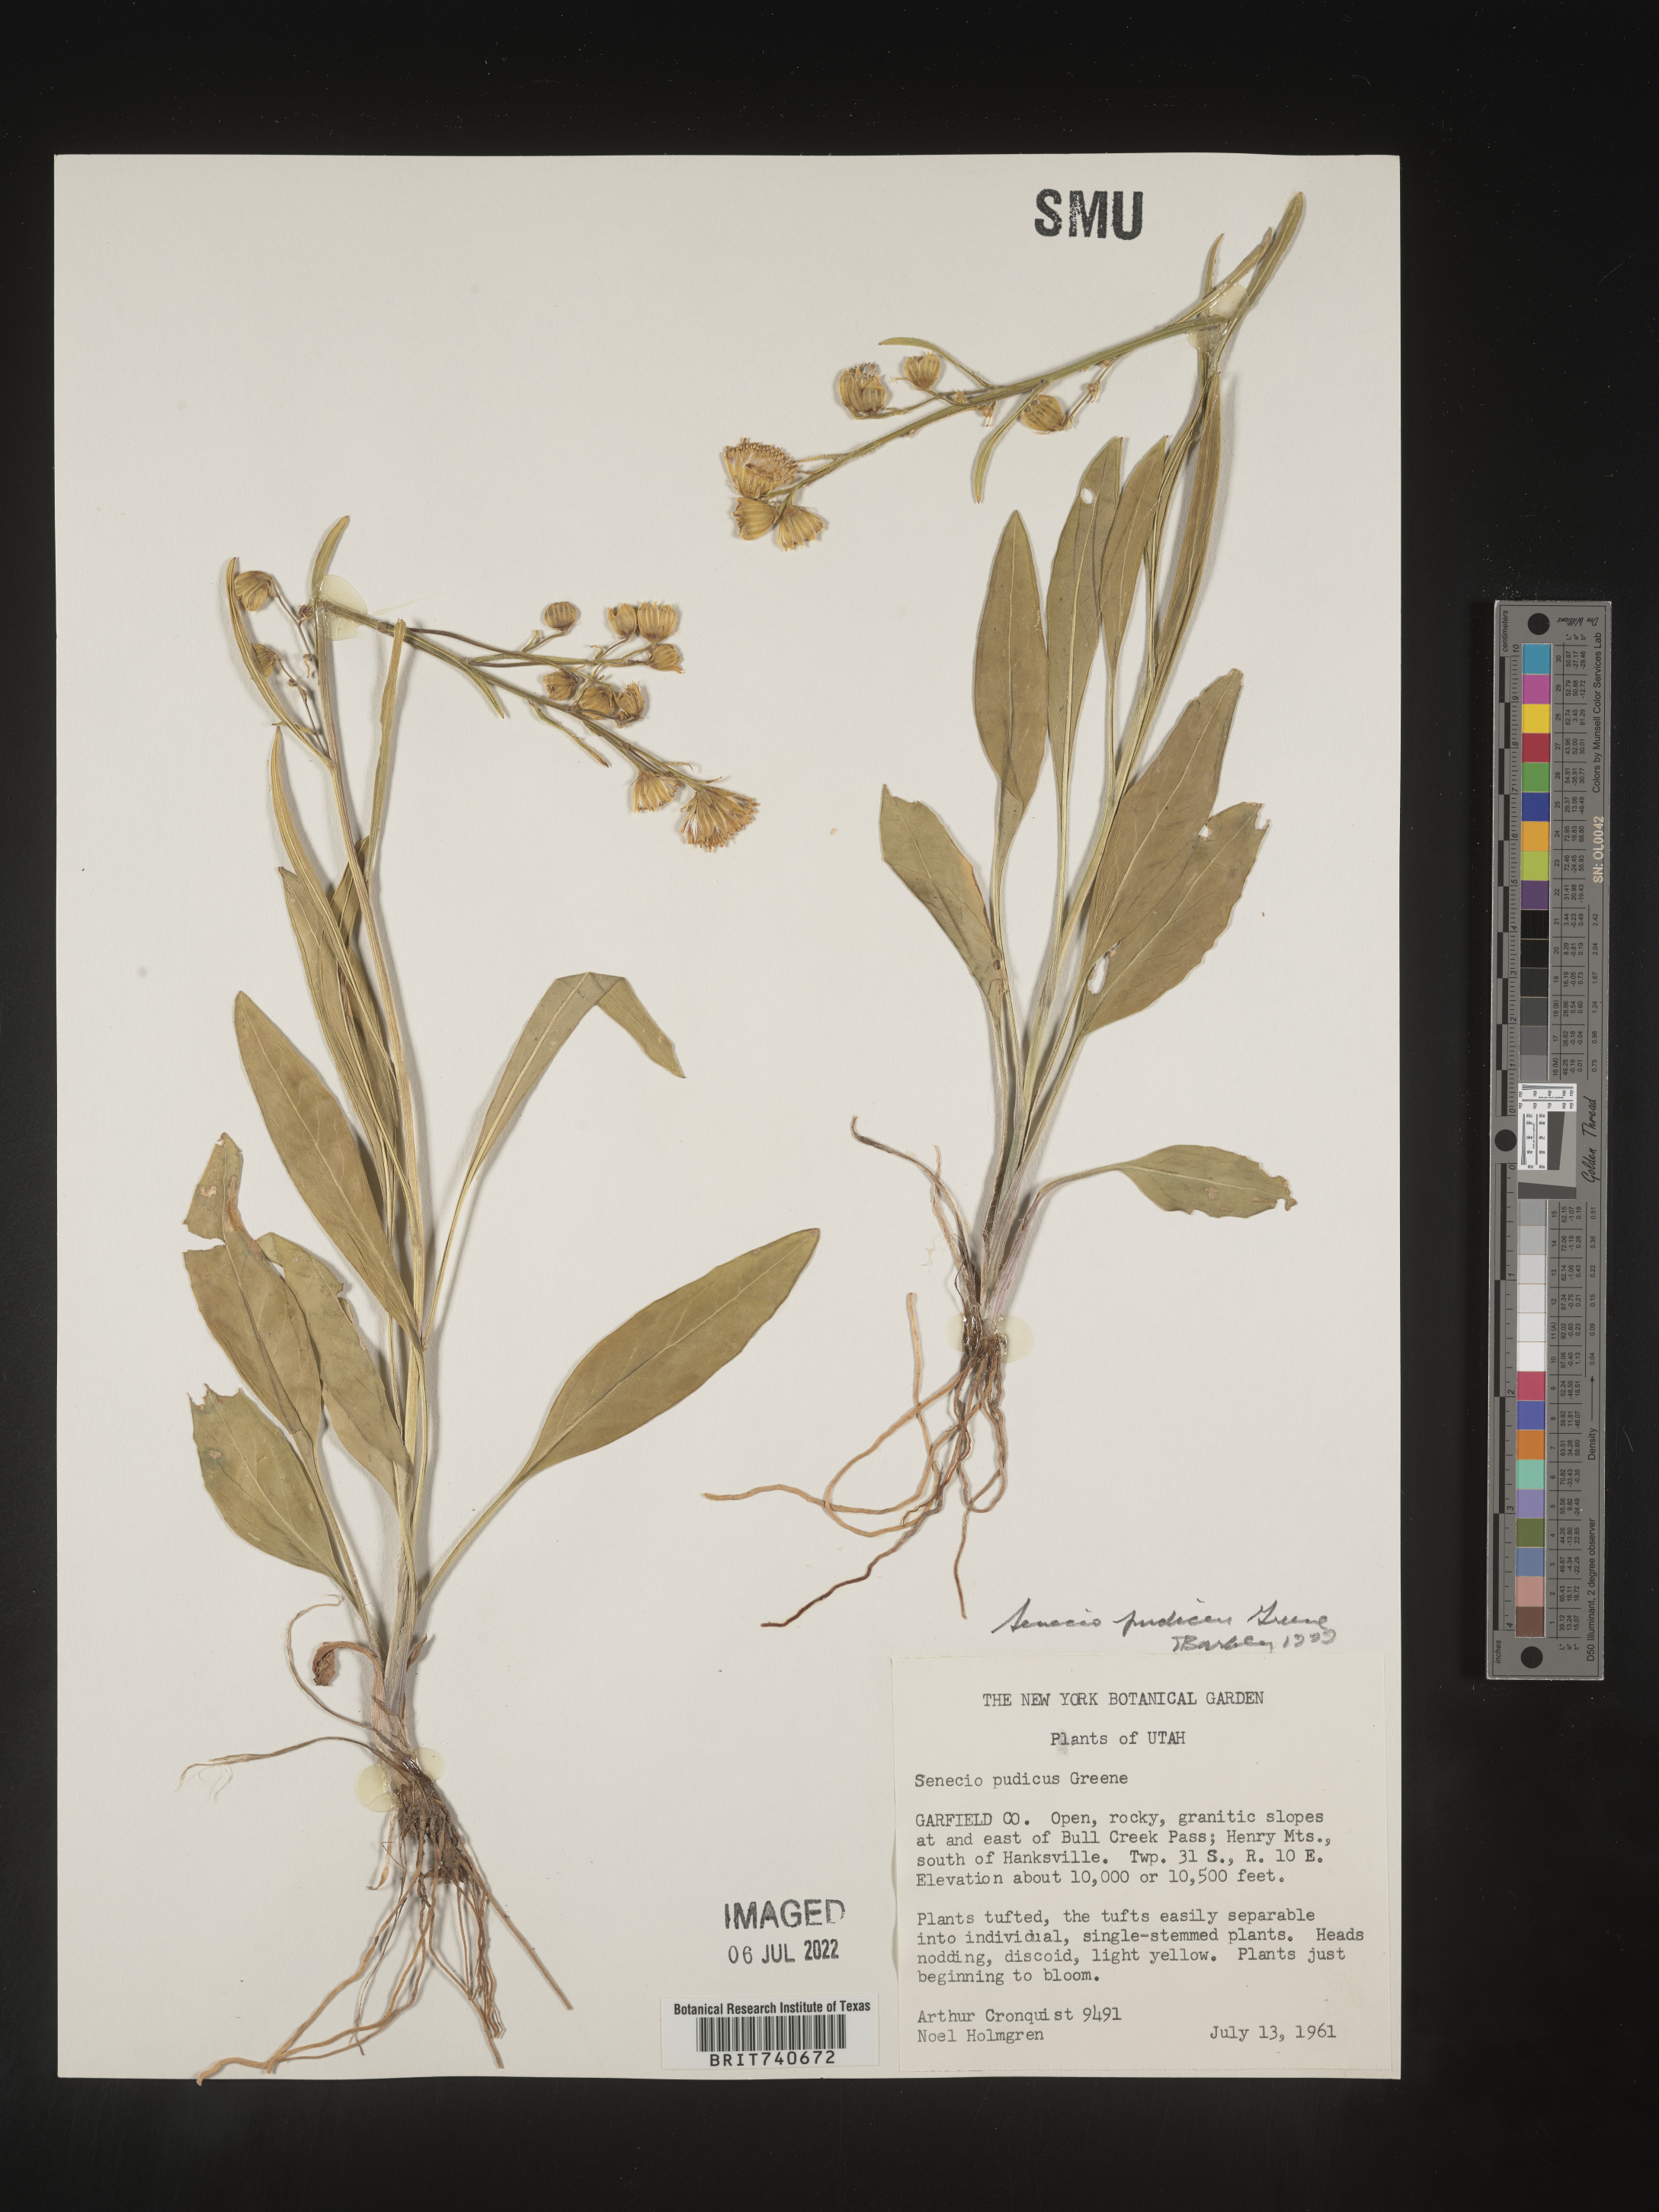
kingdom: Plantae
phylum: Tracheophyta
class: Magnoliopsida
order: Asterales
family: Asteraceae
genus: Senecio
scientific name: Senecio pudicus
